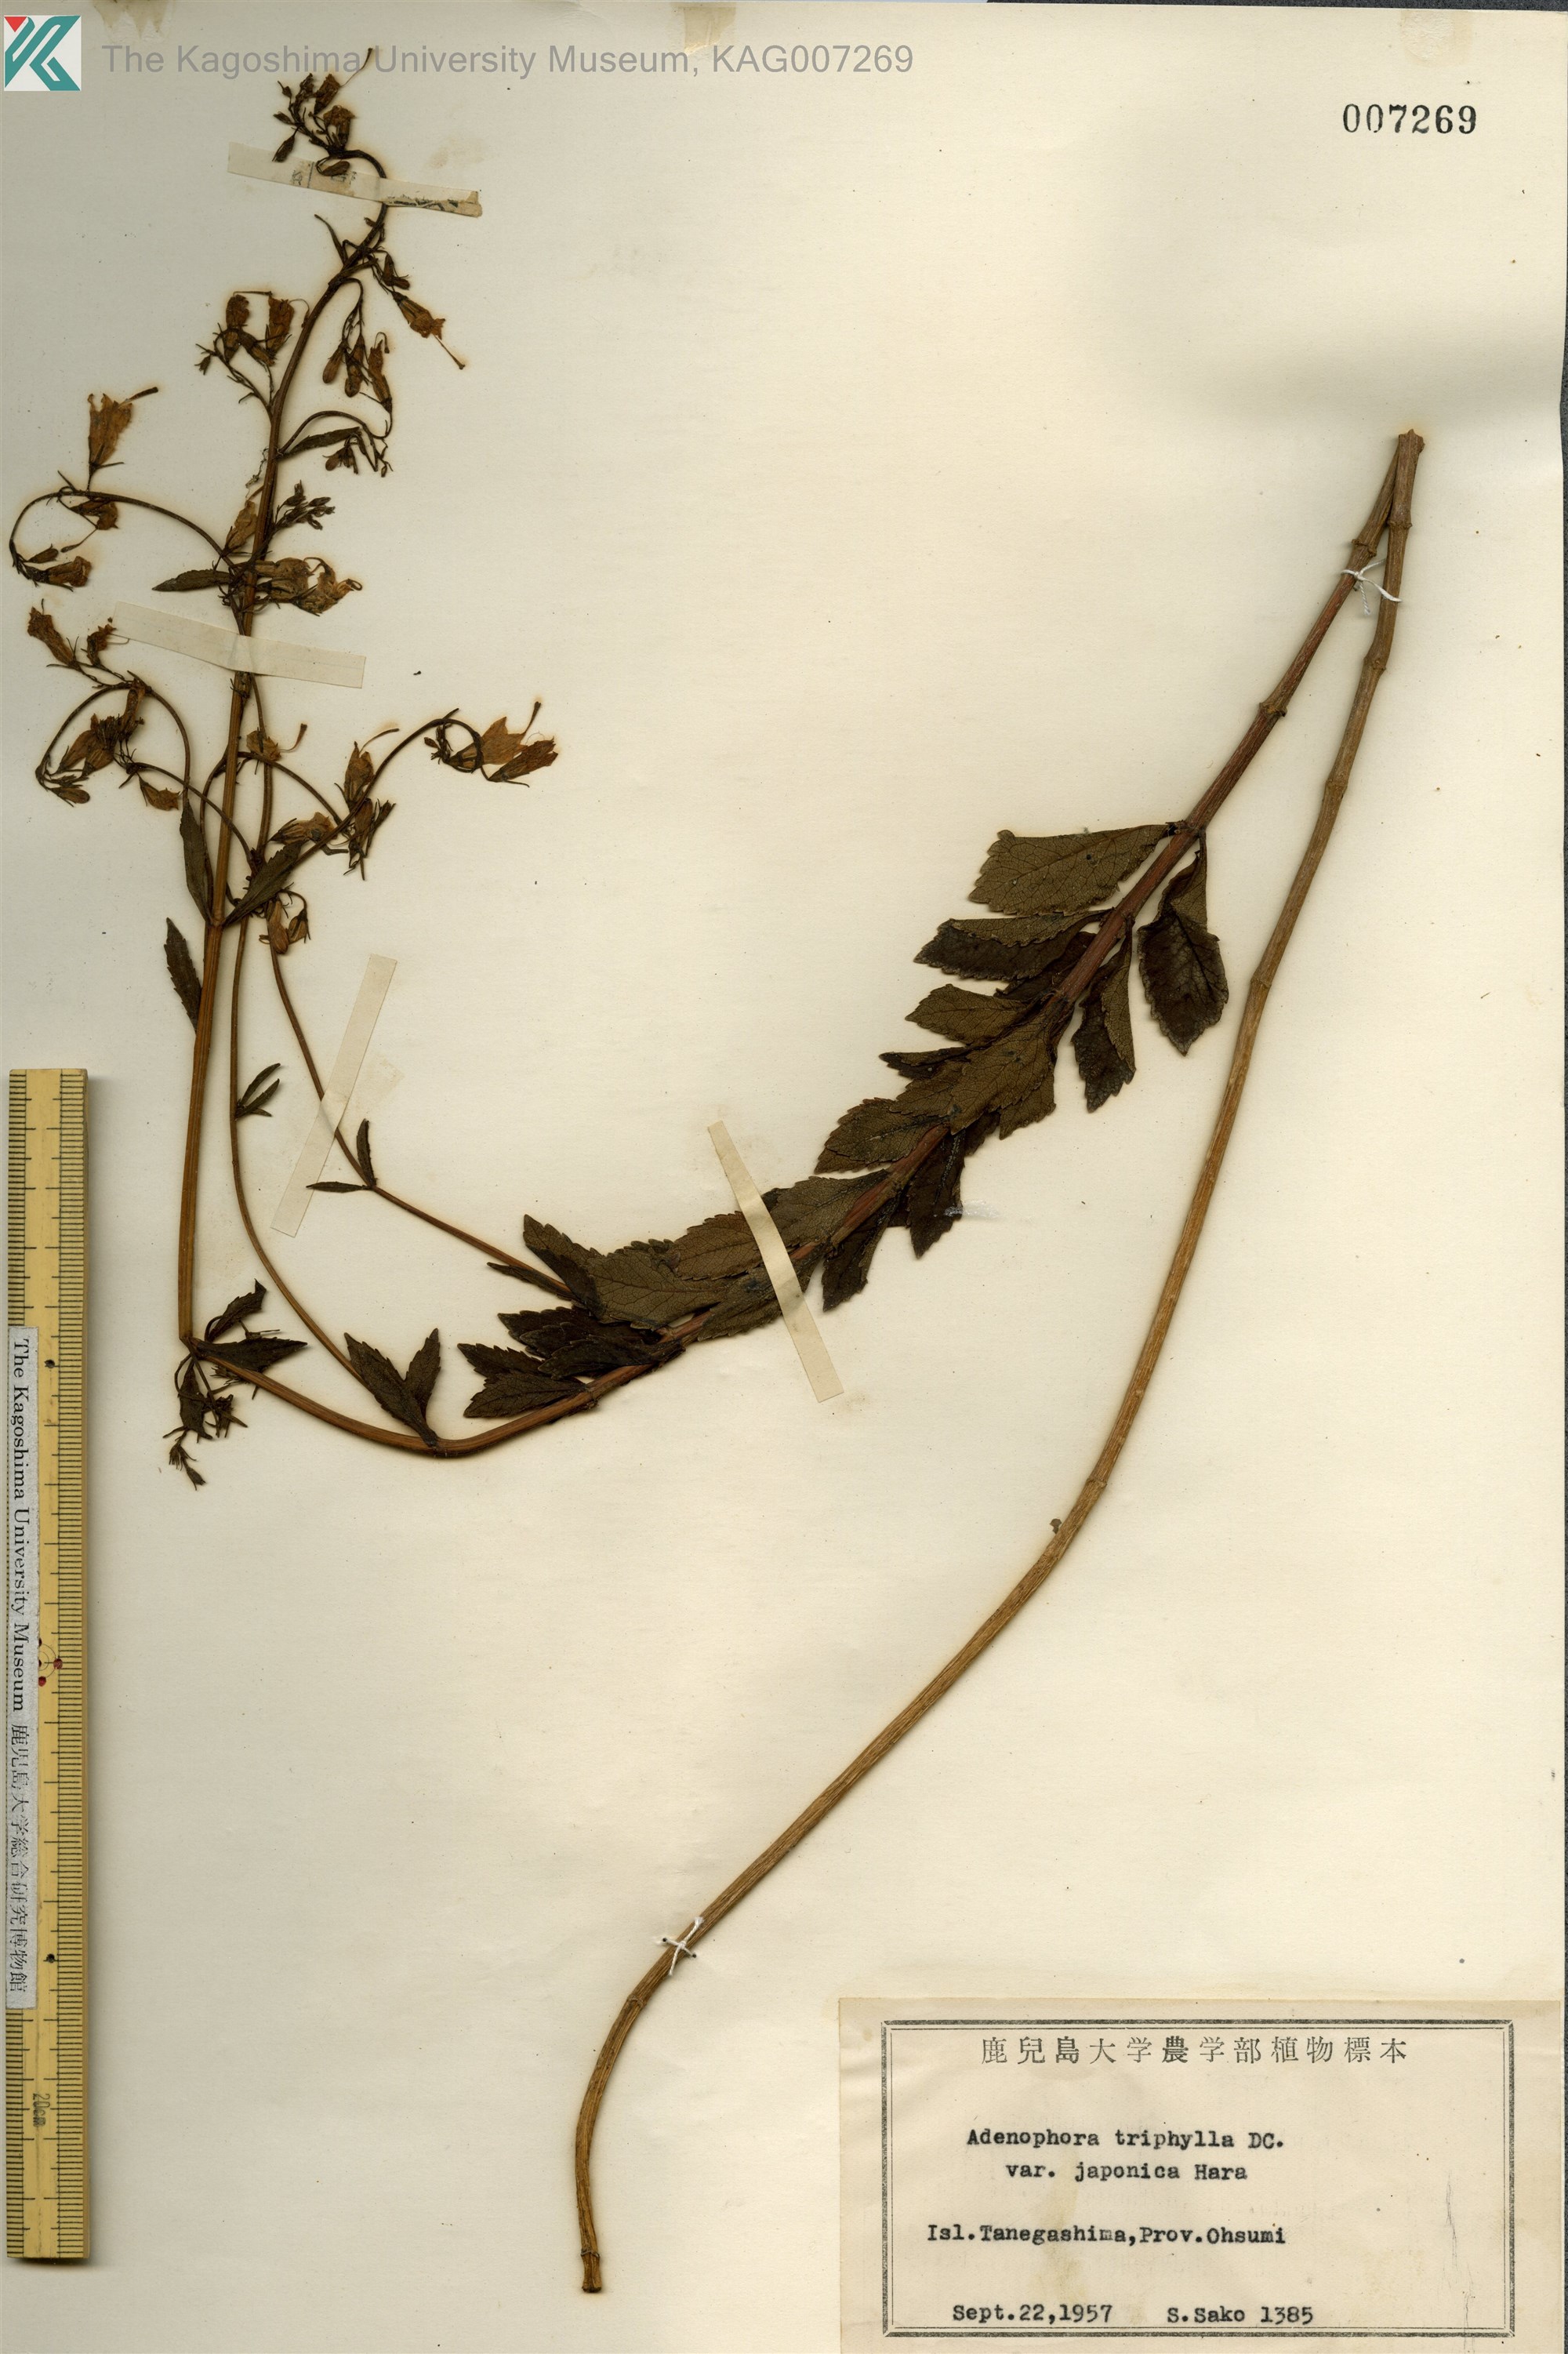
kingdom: Plantae
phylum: Tracheophyta
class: Magnoliopsida
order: Asterales
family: Campanulaceae
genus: Adenophora
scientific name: Adenophora triphylla
